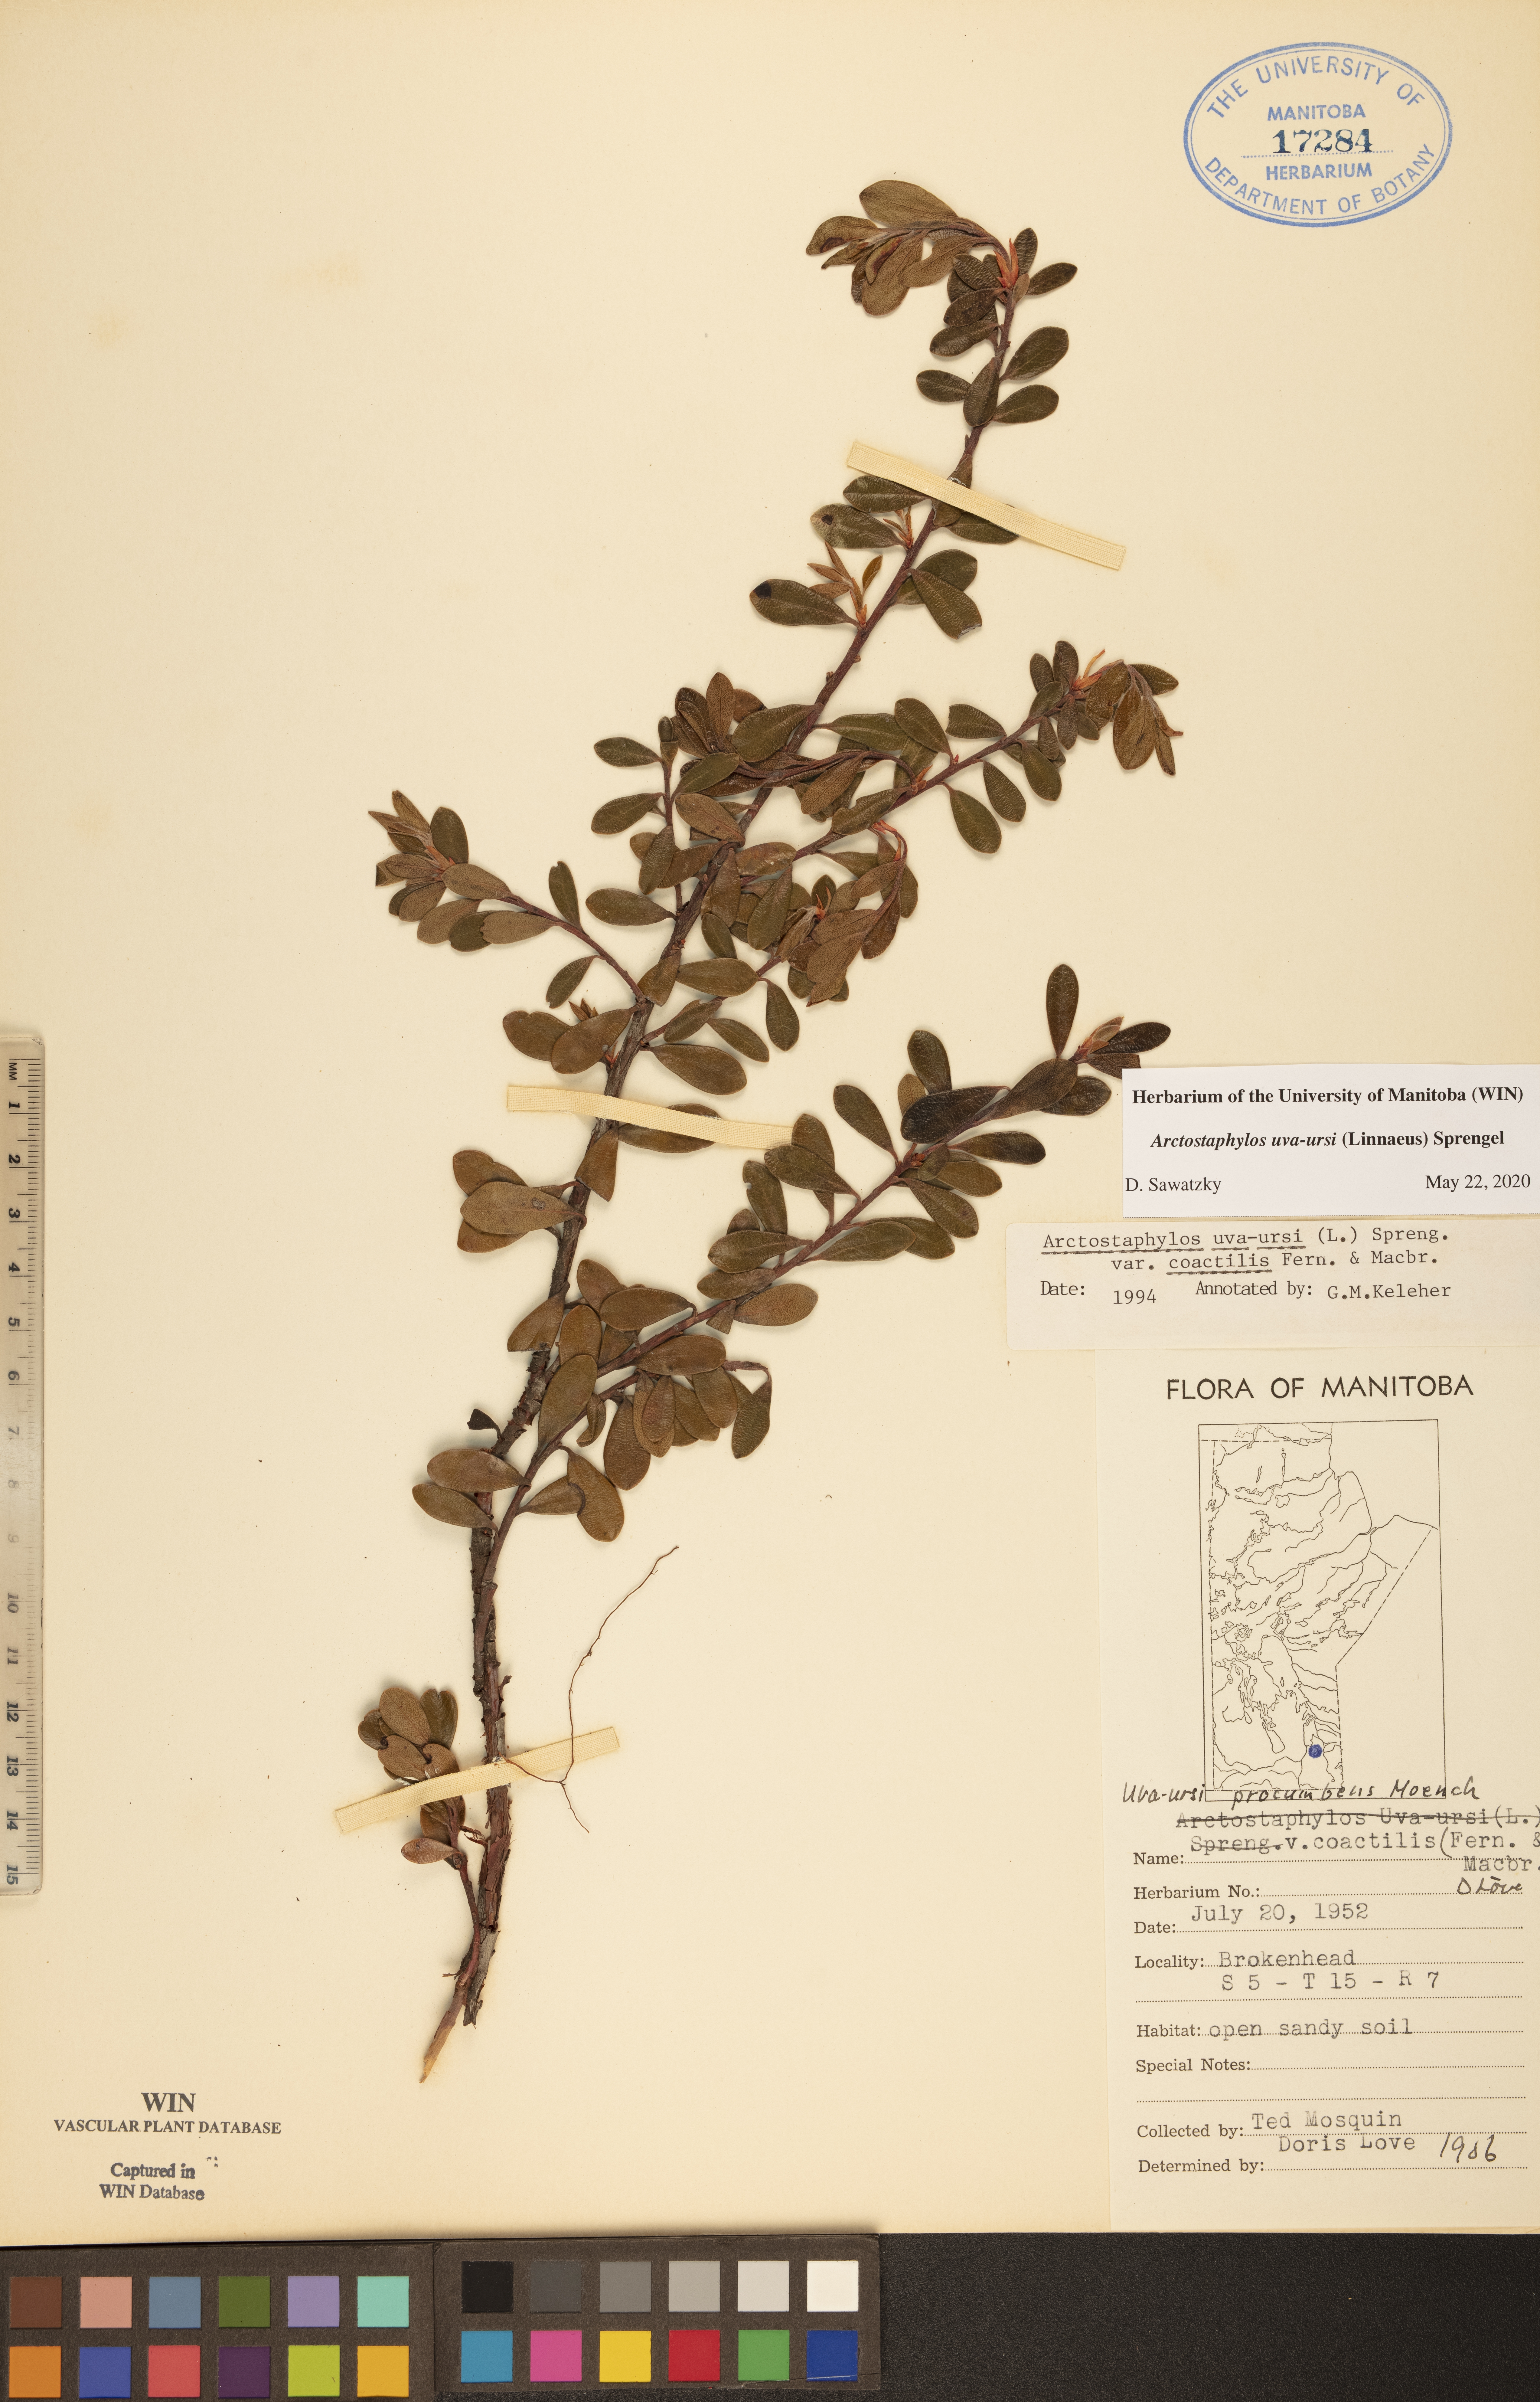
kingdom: Plantae
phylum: Tracheophyta
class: Magnoliopsida
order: Ericales
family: Ericaceae
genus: Arctostaphylos
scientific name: Arctostaphylos uva-ursi
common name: Bearberry
